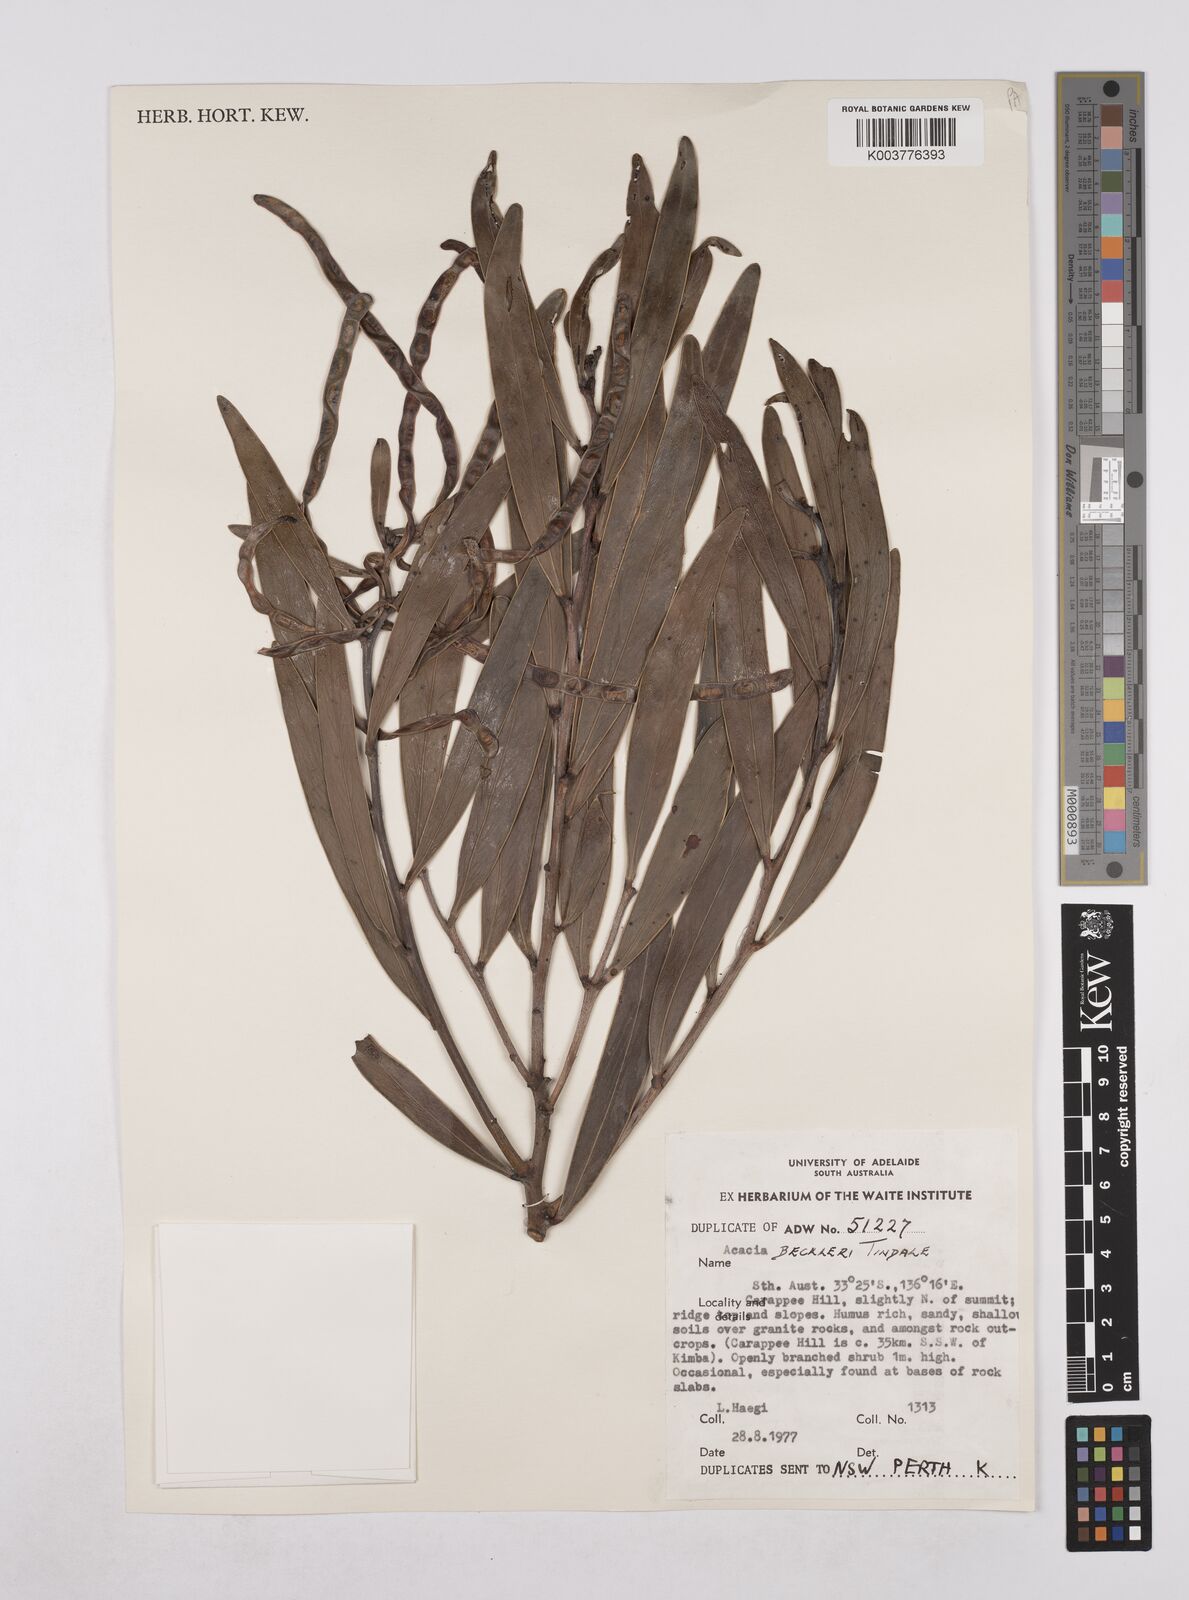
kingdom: Plantae
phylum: Tracheophyta
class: Magnoliopsida
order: Fabales
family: Fabaceae
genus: Acacia
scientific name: Acacia beckleri
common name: Barrier range wattle
